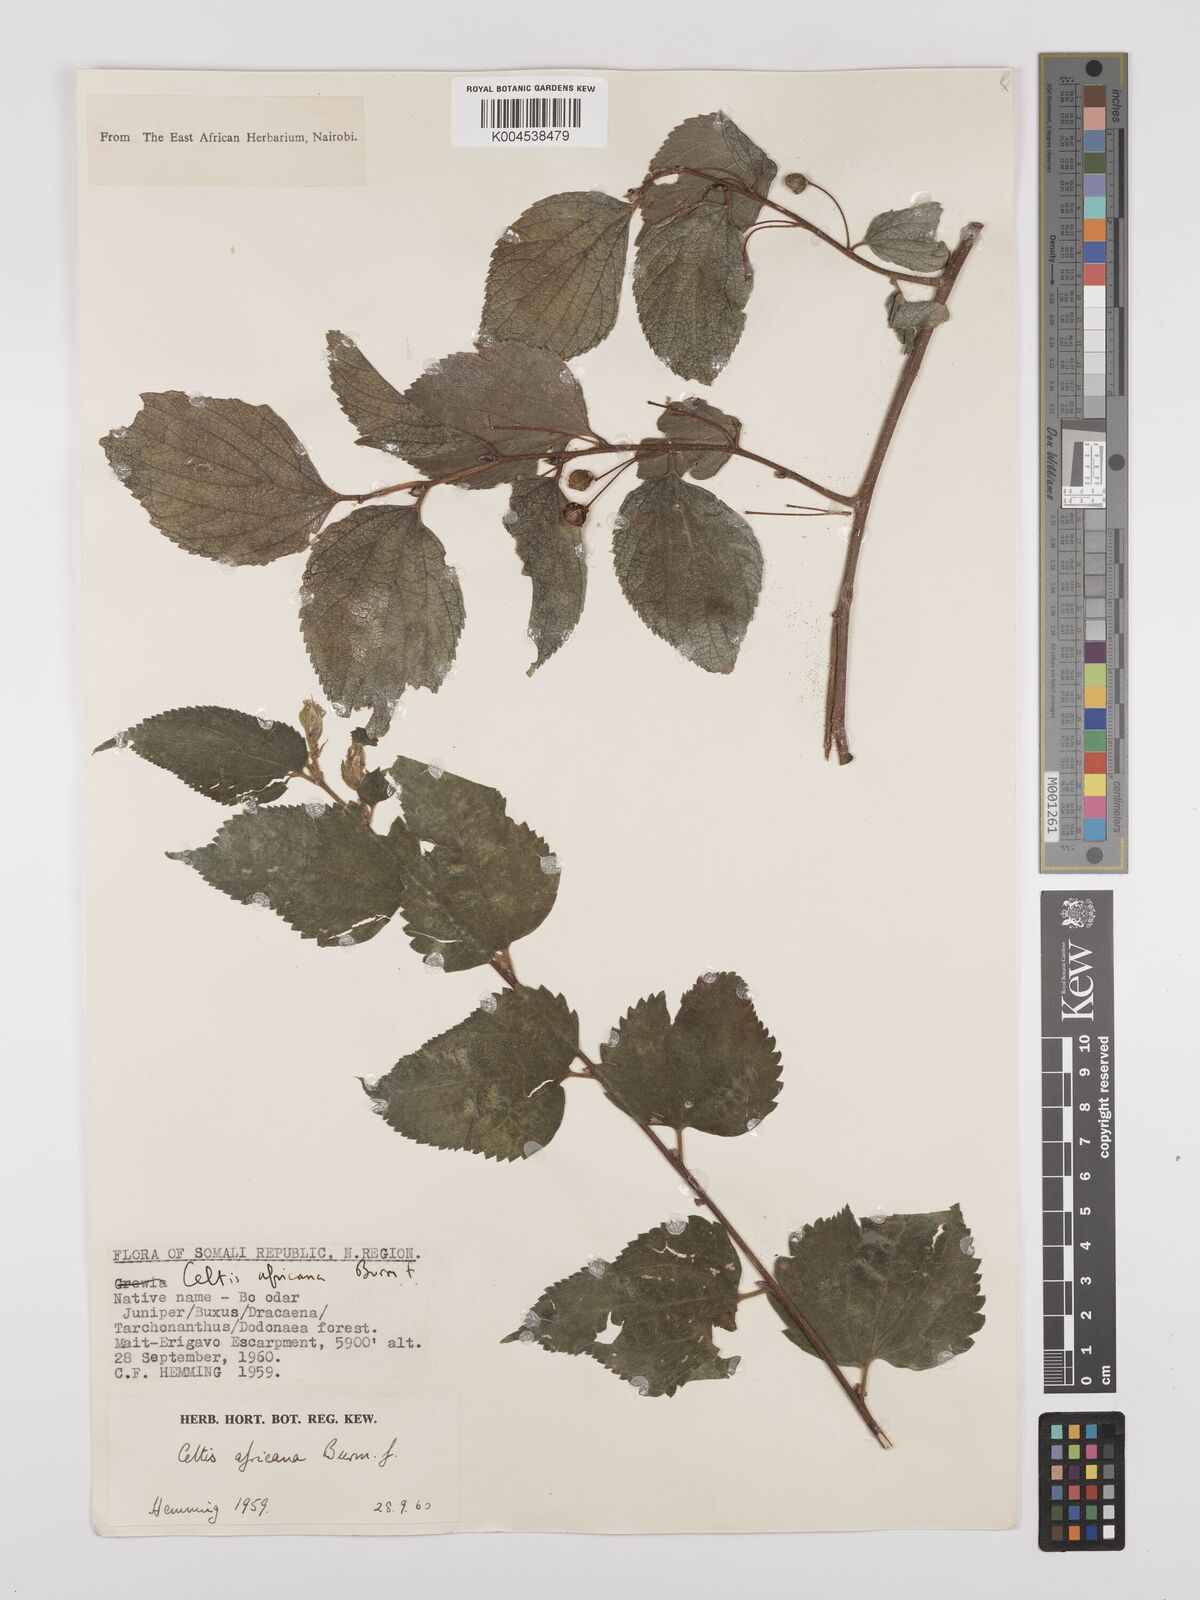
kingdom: Plantae
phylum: Tracheophyta
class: Magnoliopsida
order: Rosales
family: Cannabaceae
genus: Celtis
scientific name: Celtis africana
